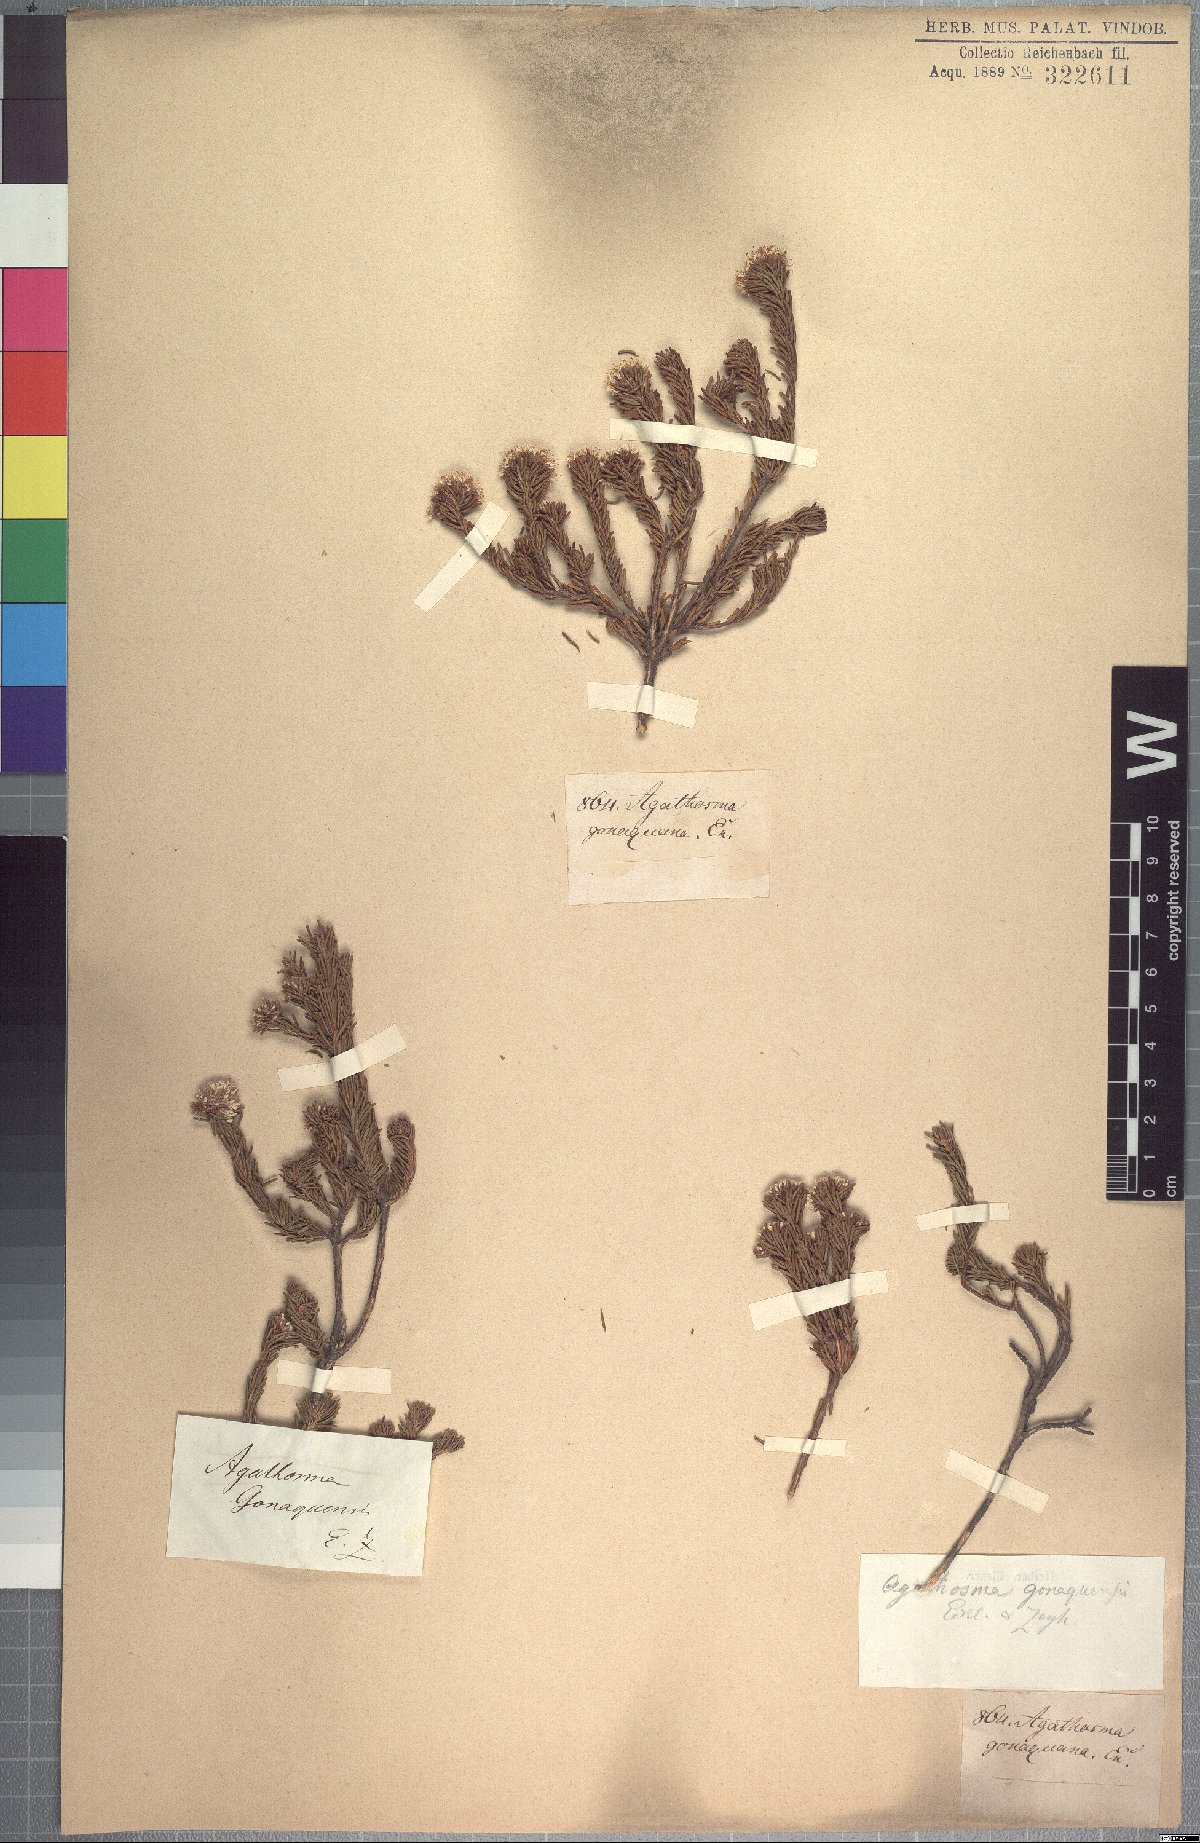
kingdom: Plantae
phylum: Tracheophyta
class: Magnoliopsida
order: Sapindales
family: Rutaceae
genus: Agathosma
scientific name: Agathosma gonaquensis
